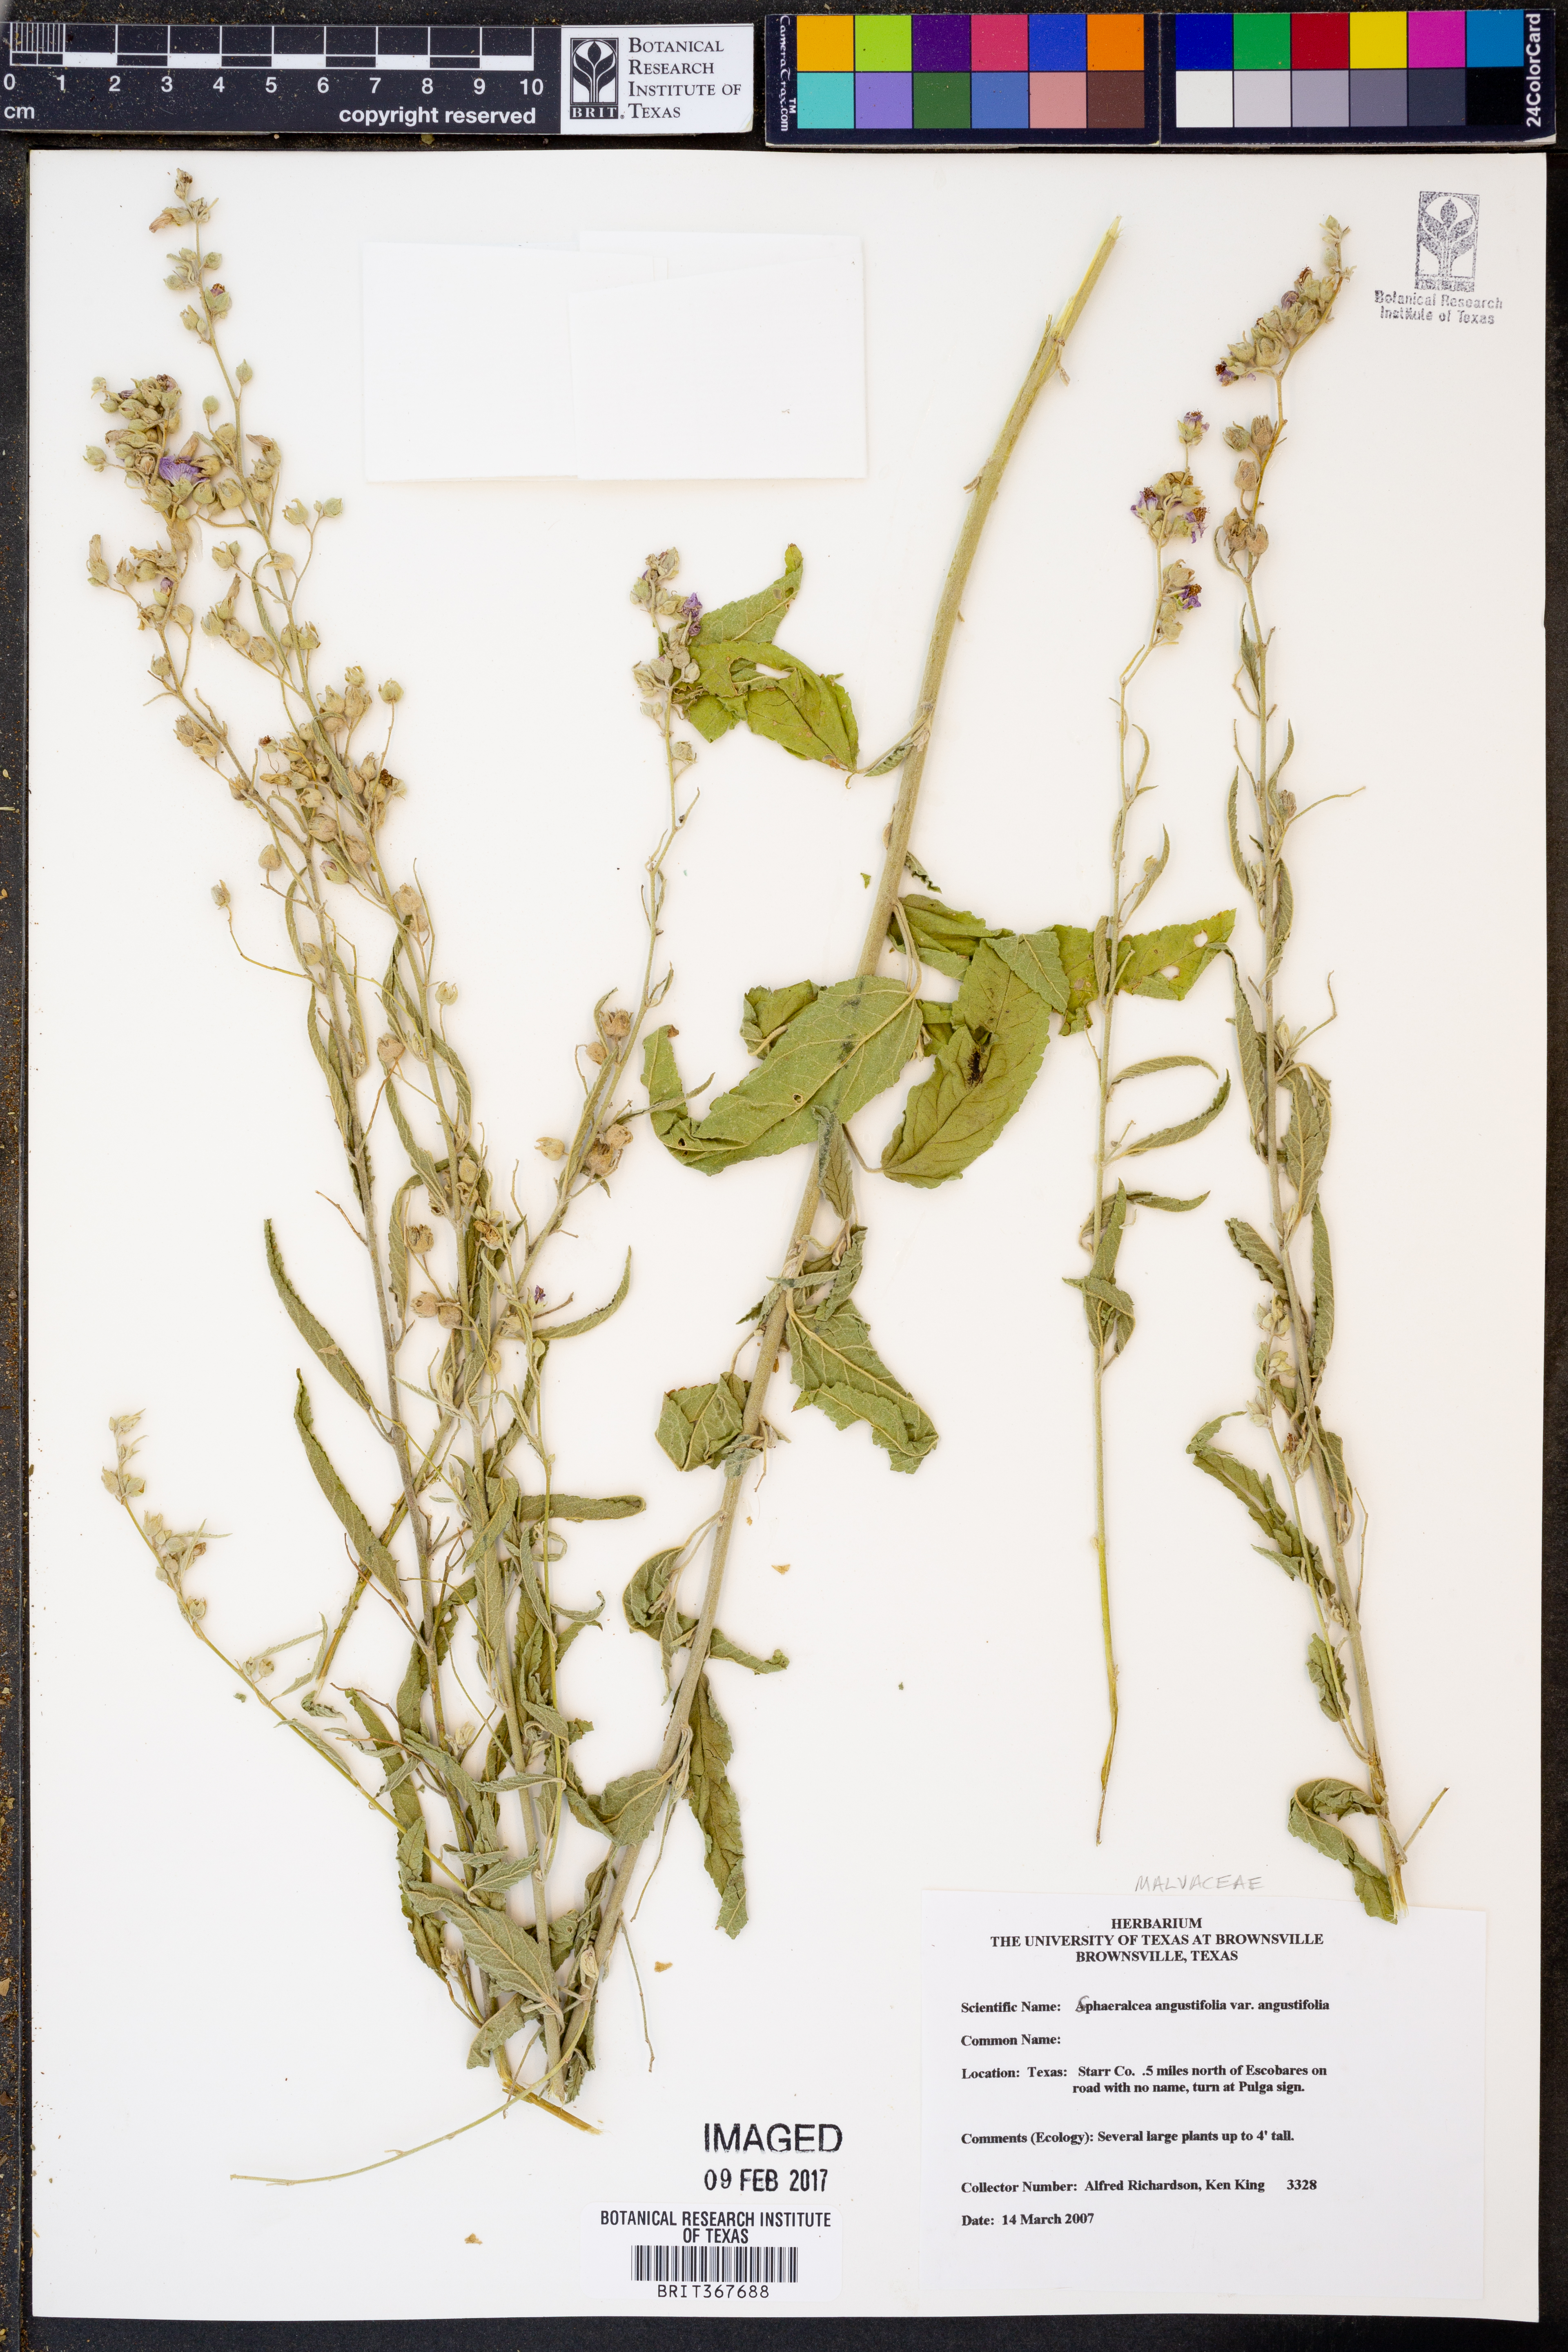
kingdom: Plantae
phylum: Tracheophyta
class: Magnoliopsida
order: Malvales
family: Malvaceae
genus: Sphaeralcea
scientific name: Sphaeralcea angustifolia
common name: Copper globe-mallow
